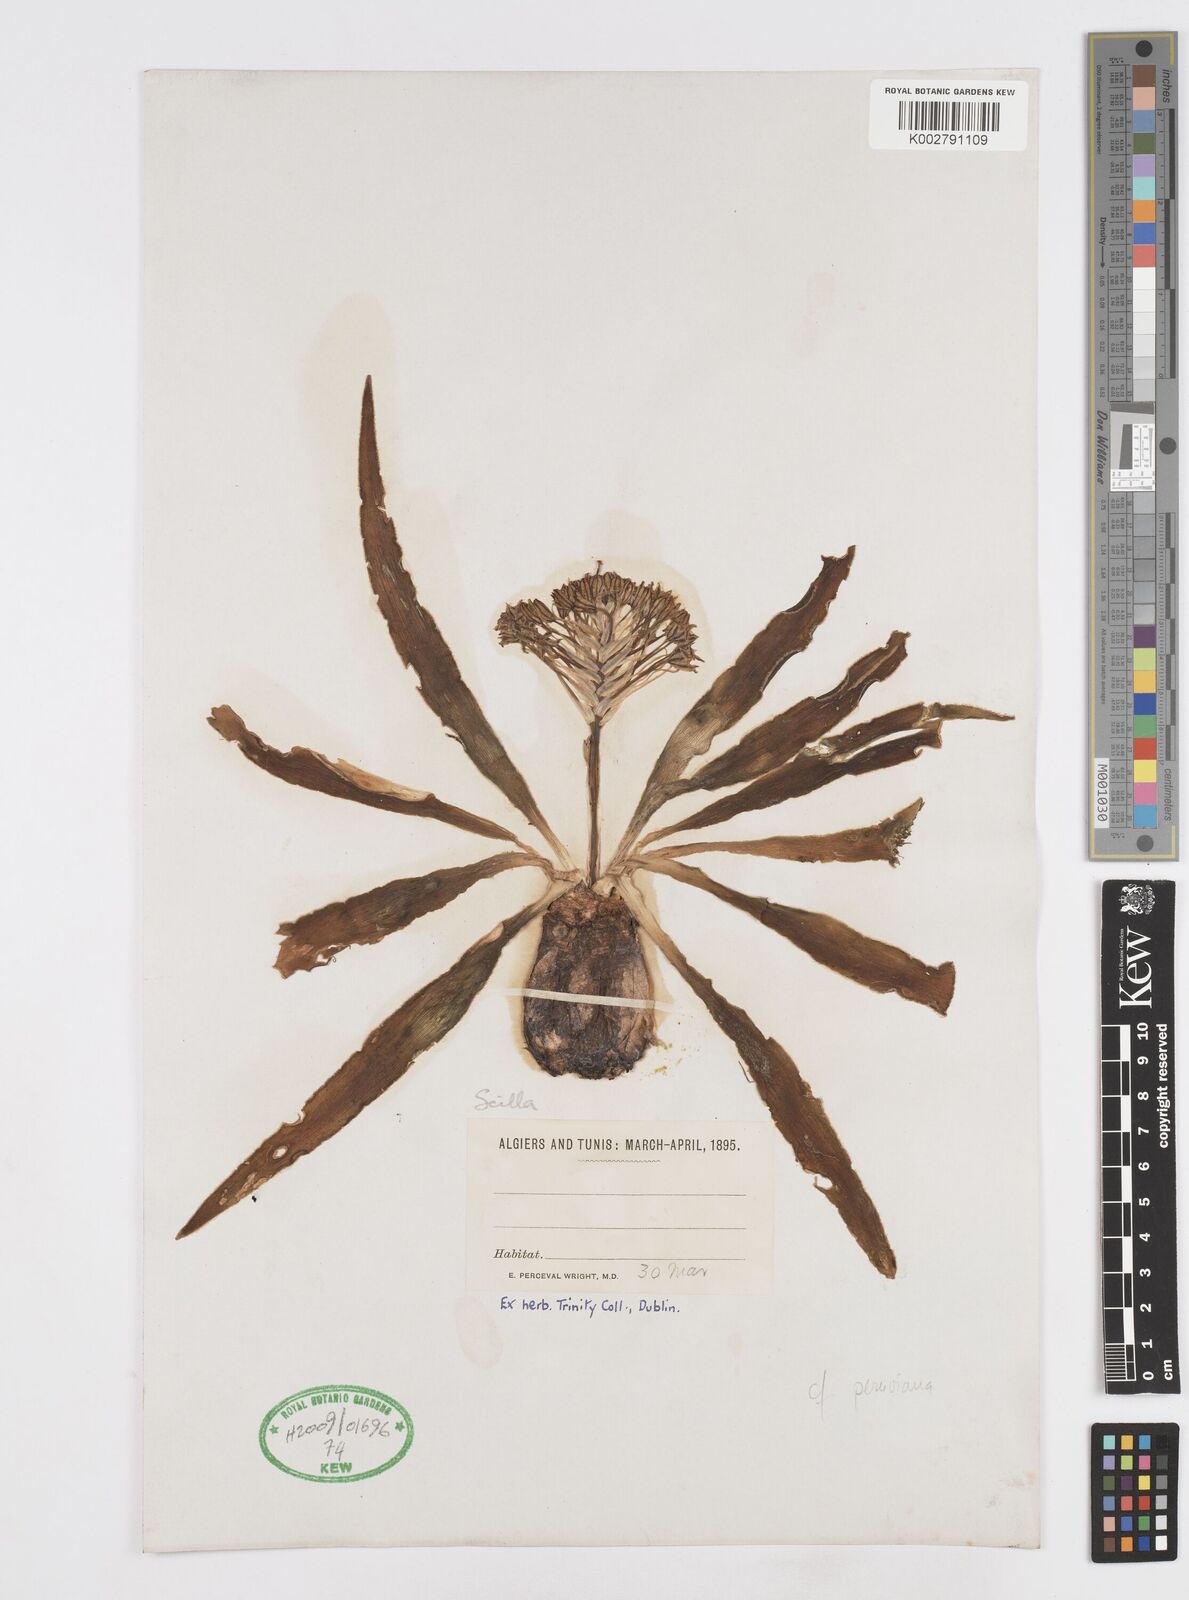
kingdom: Plantae
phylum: Tracheophyta
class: Liliopsida
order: Asparagales
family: Asparagaceae
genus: Scilla
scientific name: Scilla
